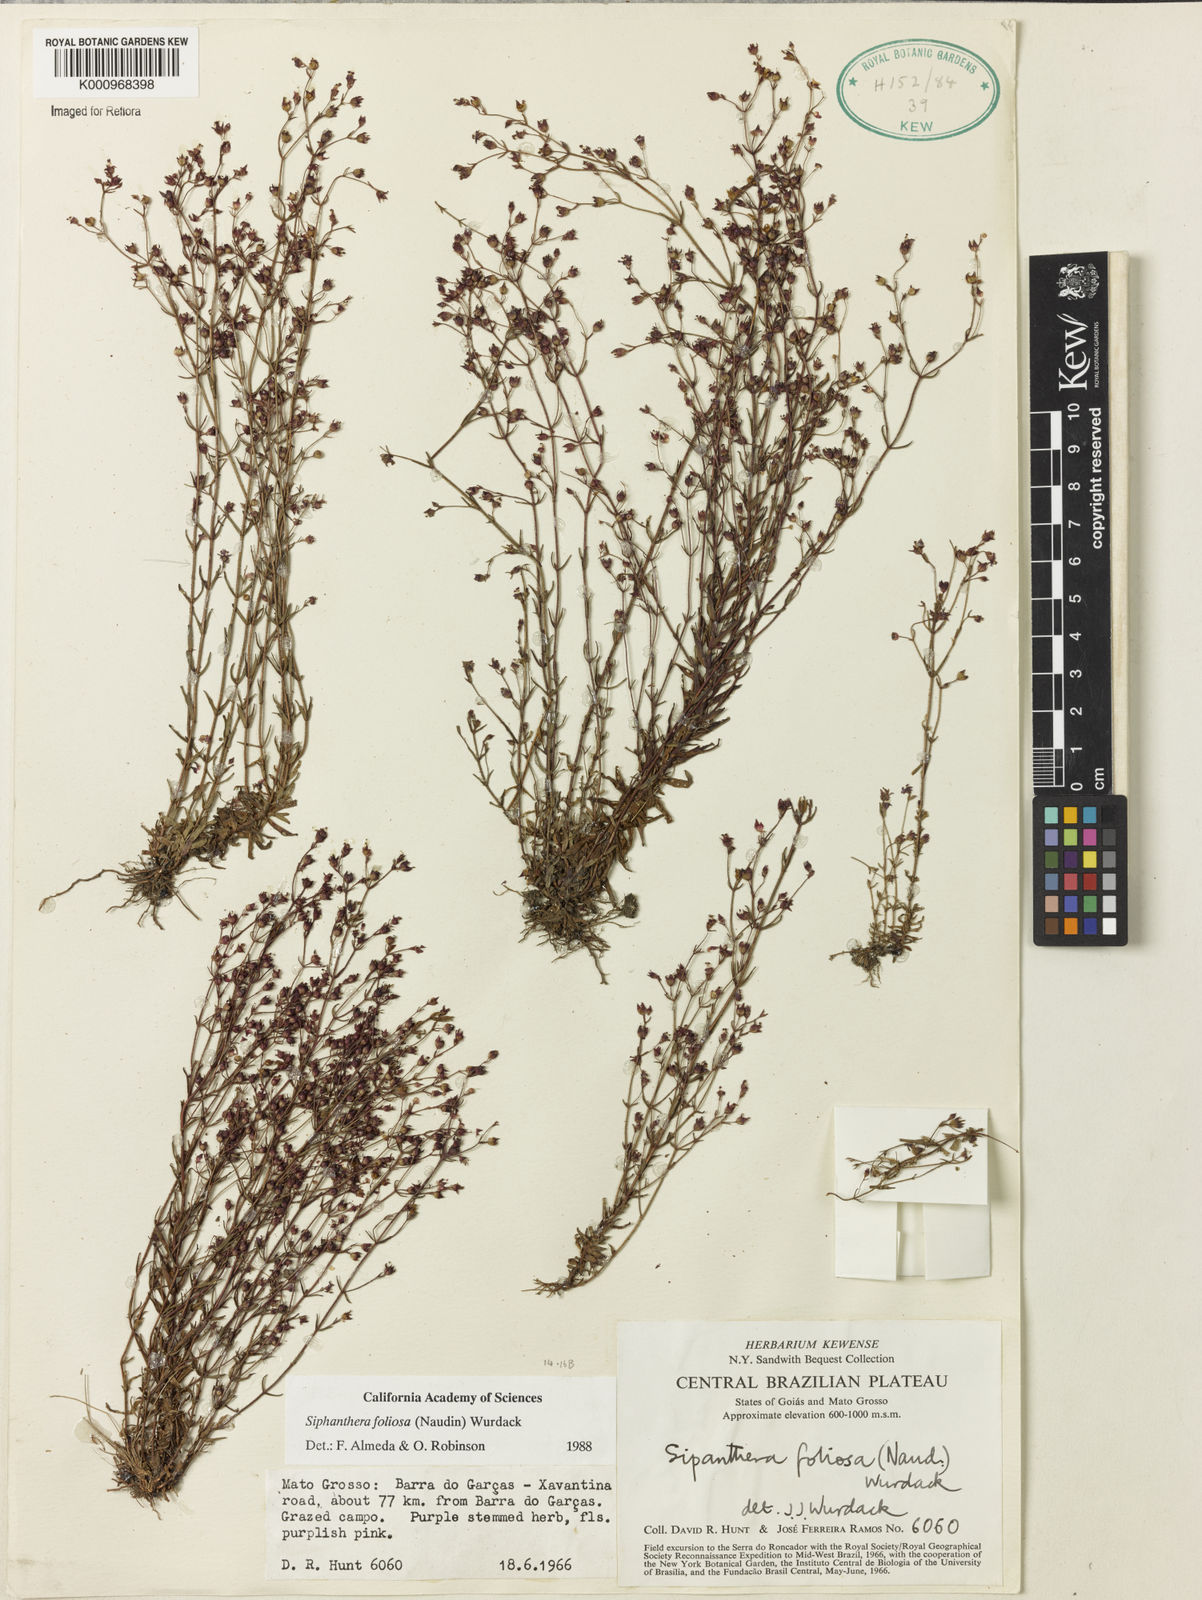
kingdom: Plantae
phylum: Tracheophyta
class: Magnoliopsida
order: Myrtales
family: Melastomataceae
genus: Siphanthera
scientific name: Siphanthera foliosa
